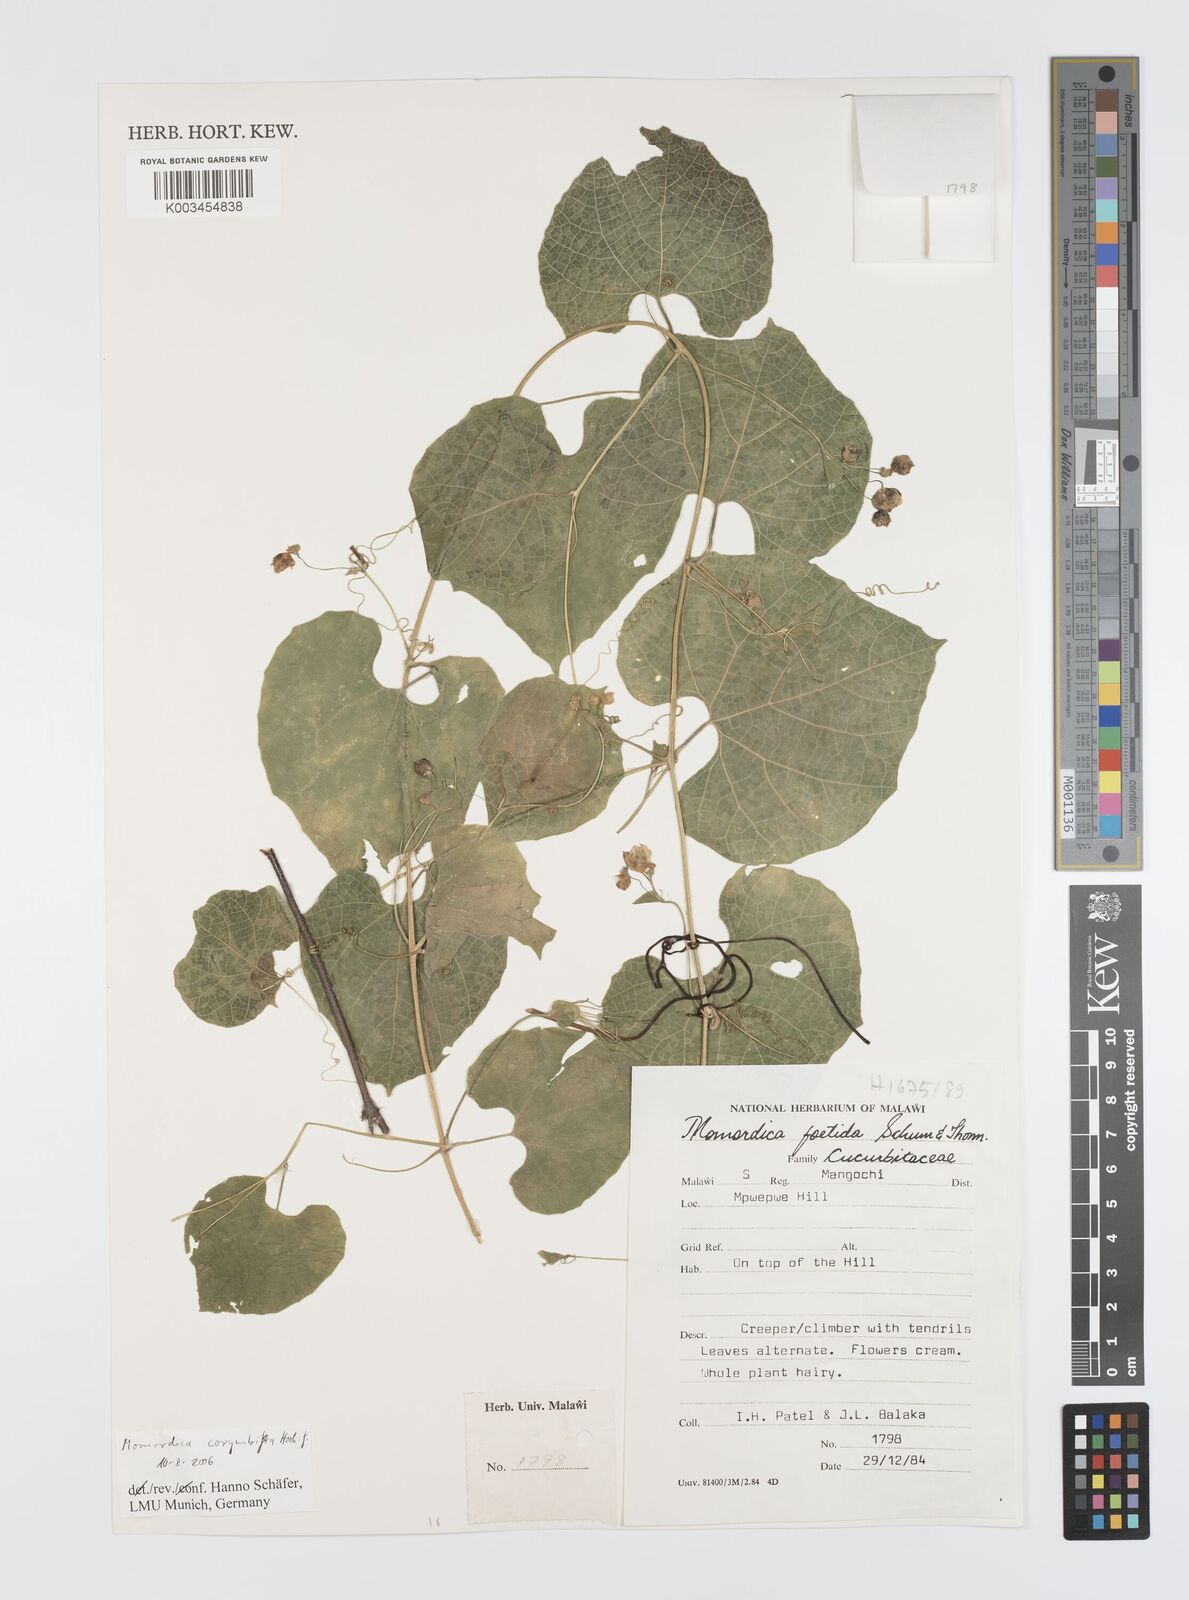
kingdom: Plantae
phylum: Tracheophyta
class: Magnoliopsida
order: Cucurbitales
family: Cucurbitaceae
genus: Momordica
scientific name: Momordica corymbifera
